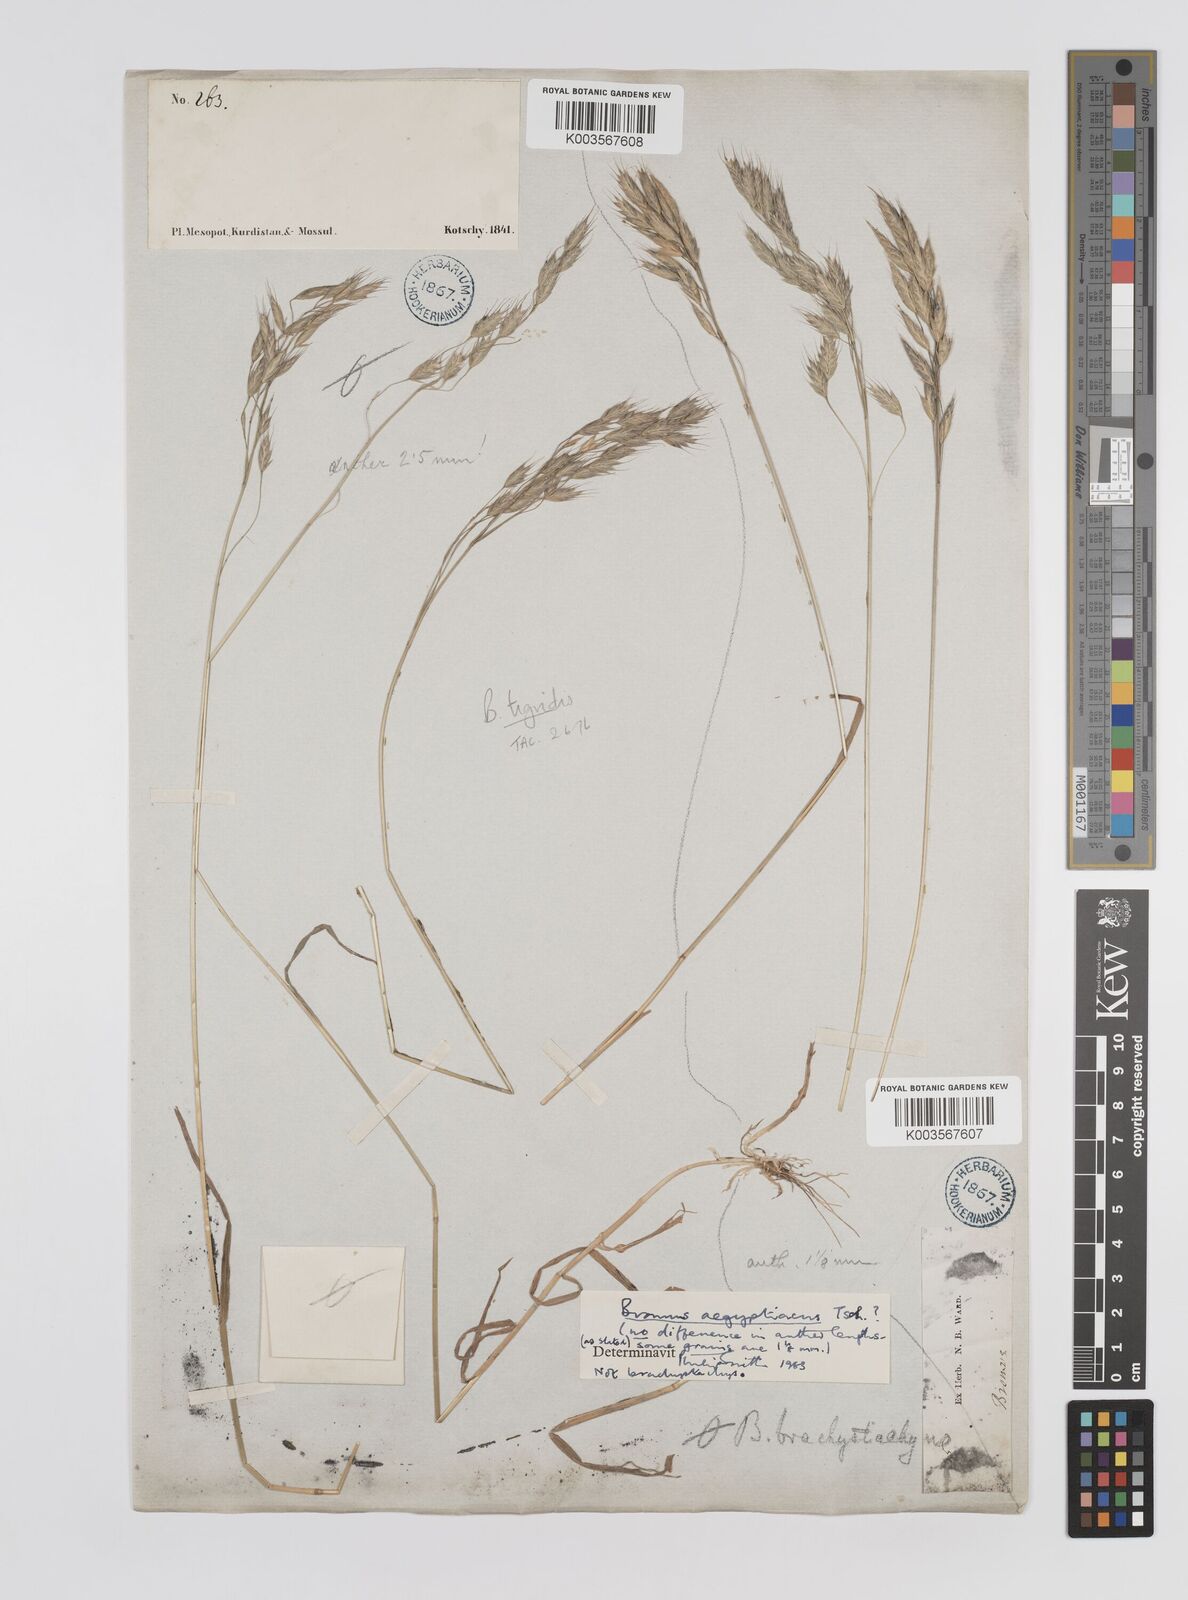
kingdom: Plantae
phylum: Tracheophyta
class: Liliopsida
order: Poales
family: Poaceae
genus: Bromus
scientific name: Bromus brachystachys
